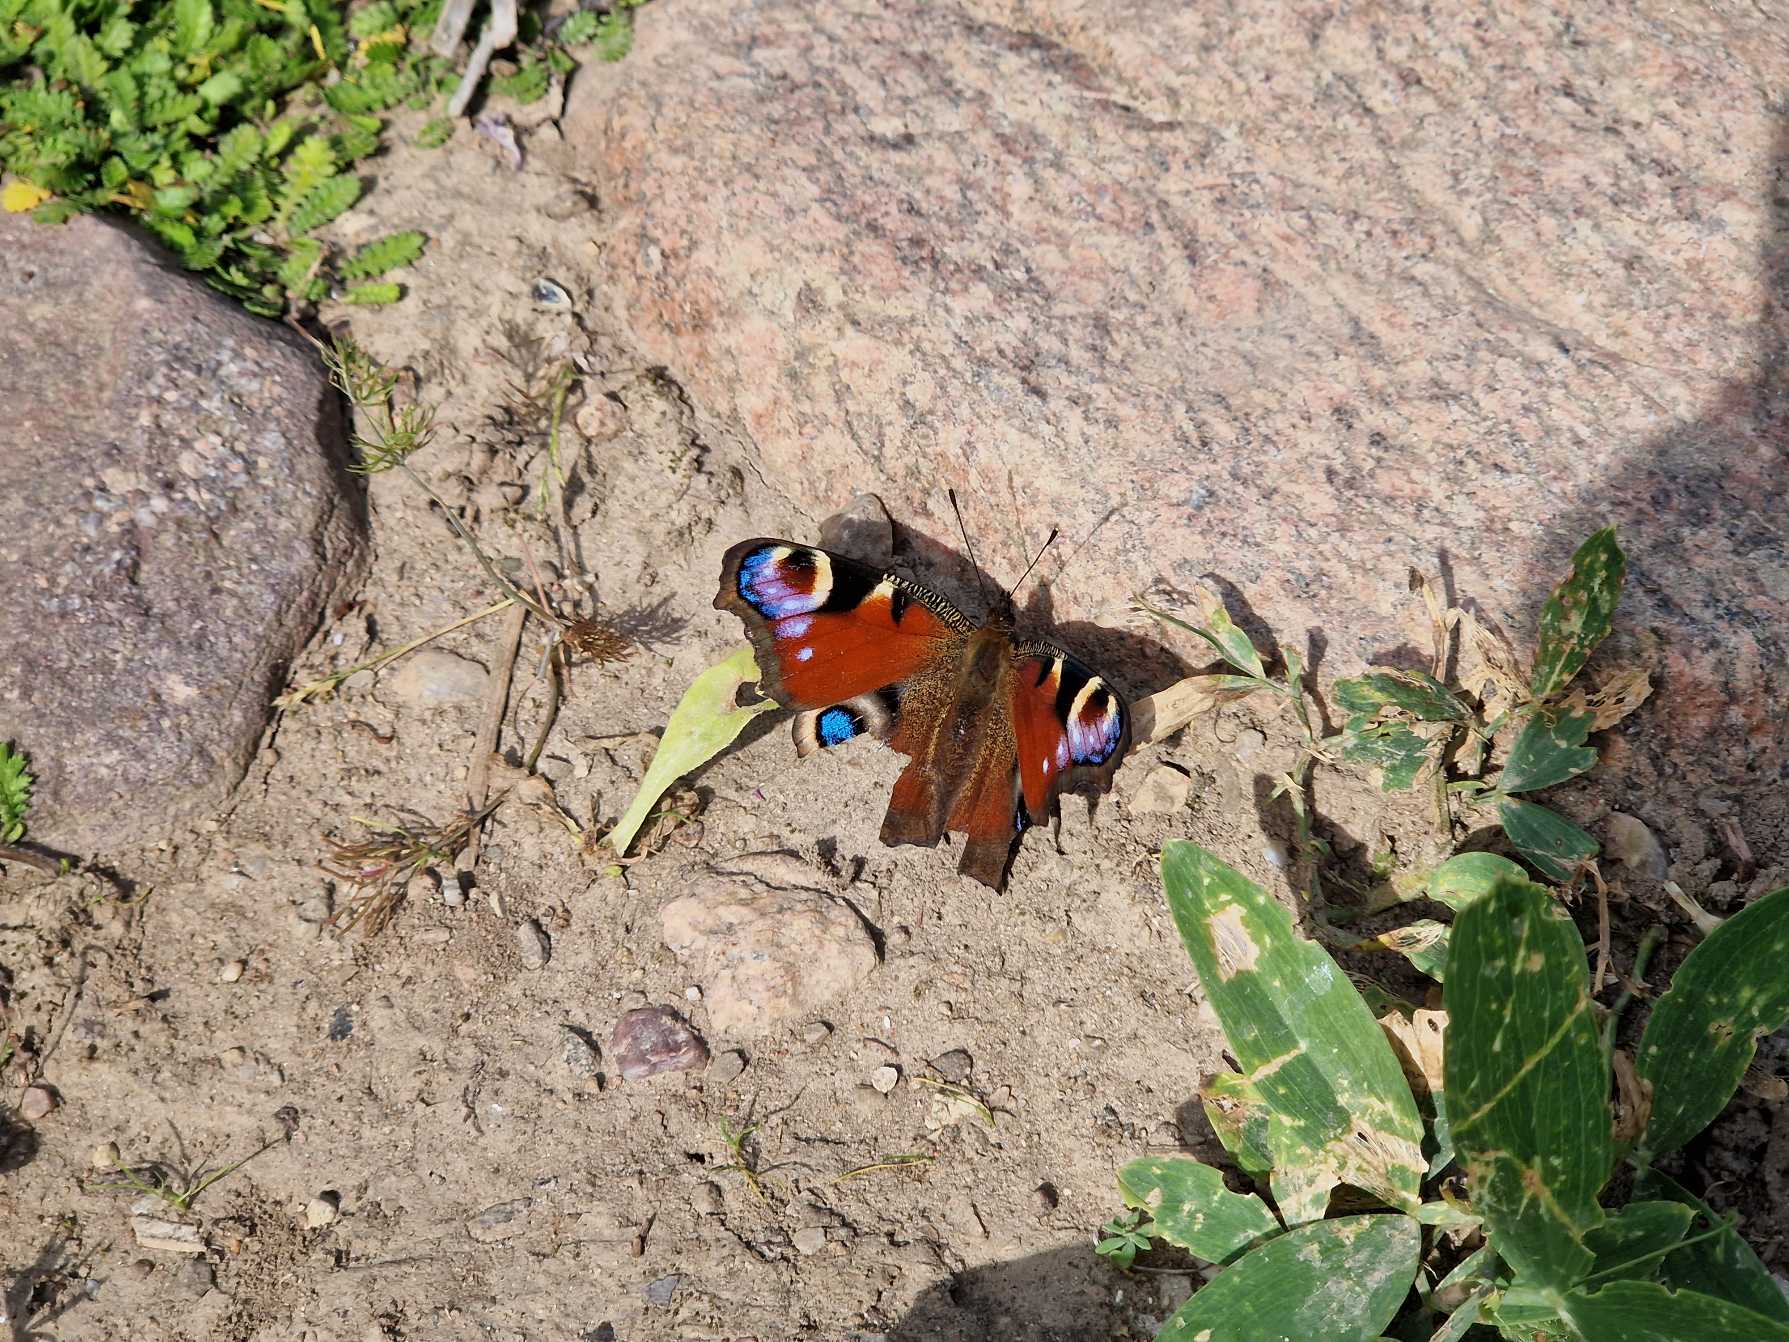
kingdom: Animalia
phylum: Arthropoda
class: Insecta
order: Lepidoptera
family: Nymphalidae
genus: Aglais
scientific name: Aglais io
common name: Dagpåfugleøje
